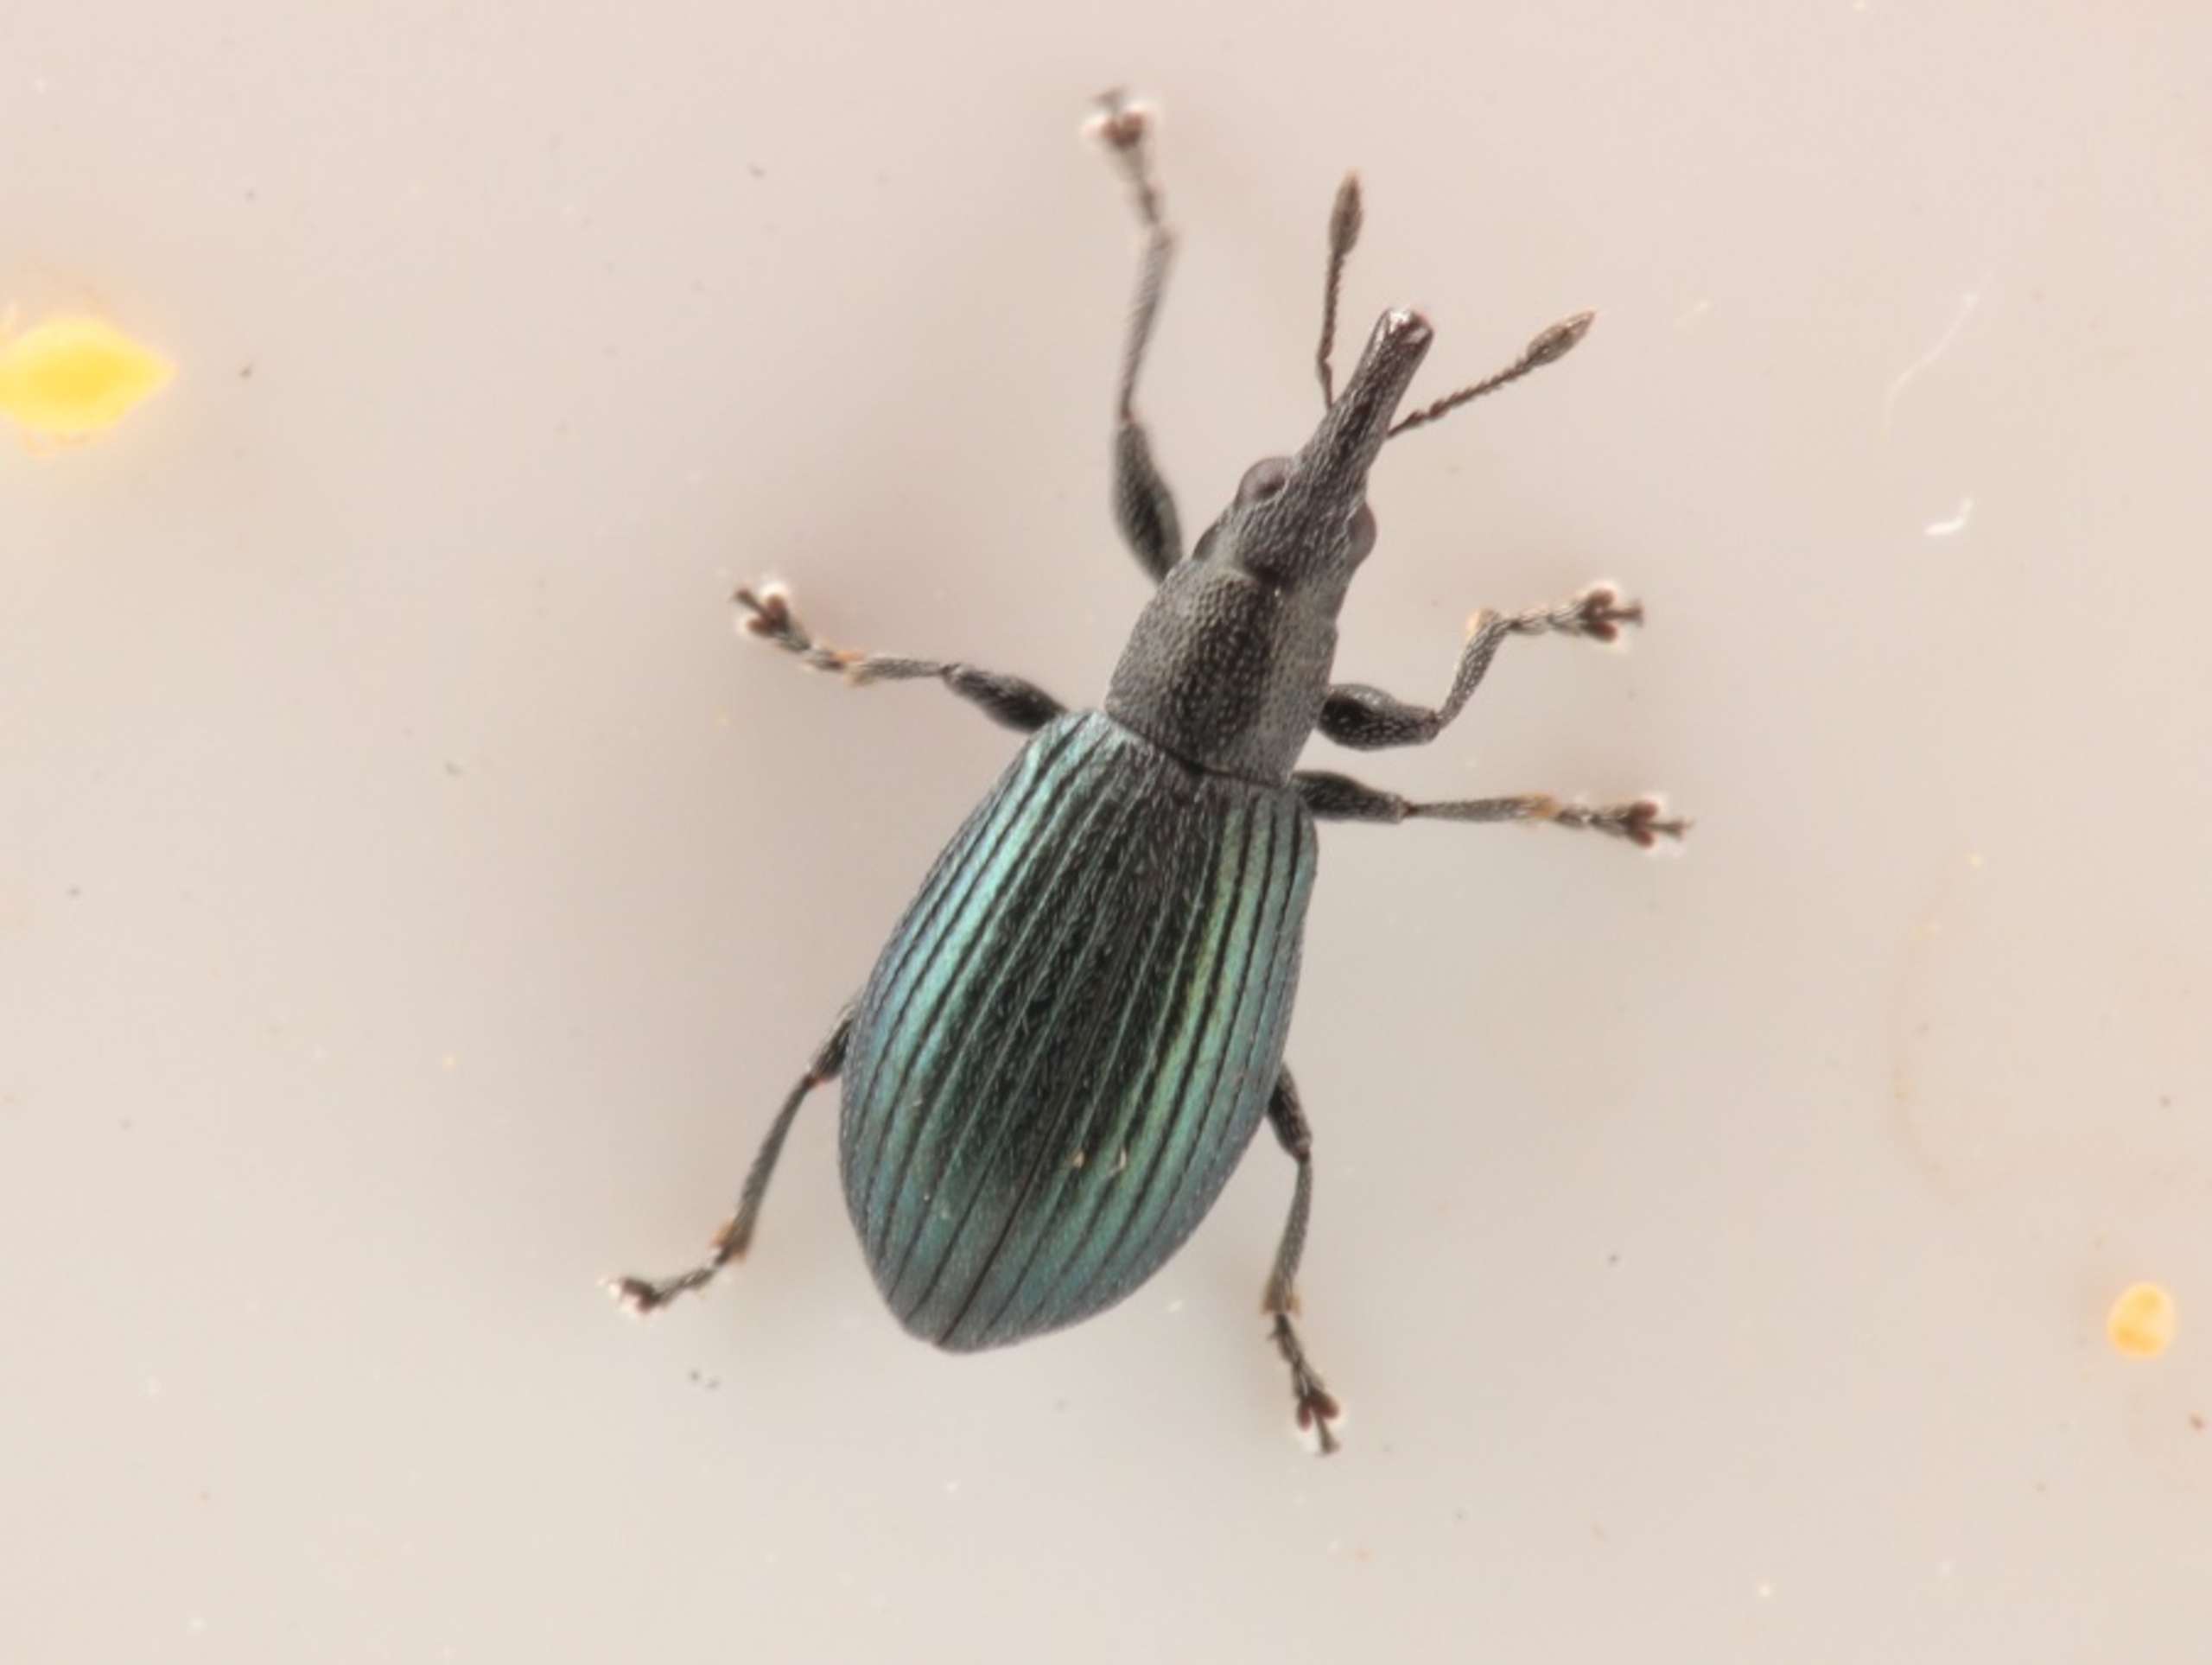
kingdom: Animalia
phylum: Arthropoda
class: Insecta
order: Coleoptera
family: Brentidae
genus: Perapion
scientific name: Perapion hydrolapathi
